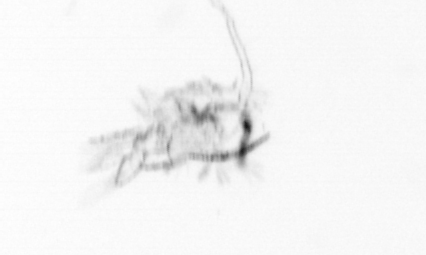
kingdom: Animalia
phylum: Arthropoda
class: Copepoda
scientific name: Copepoda
